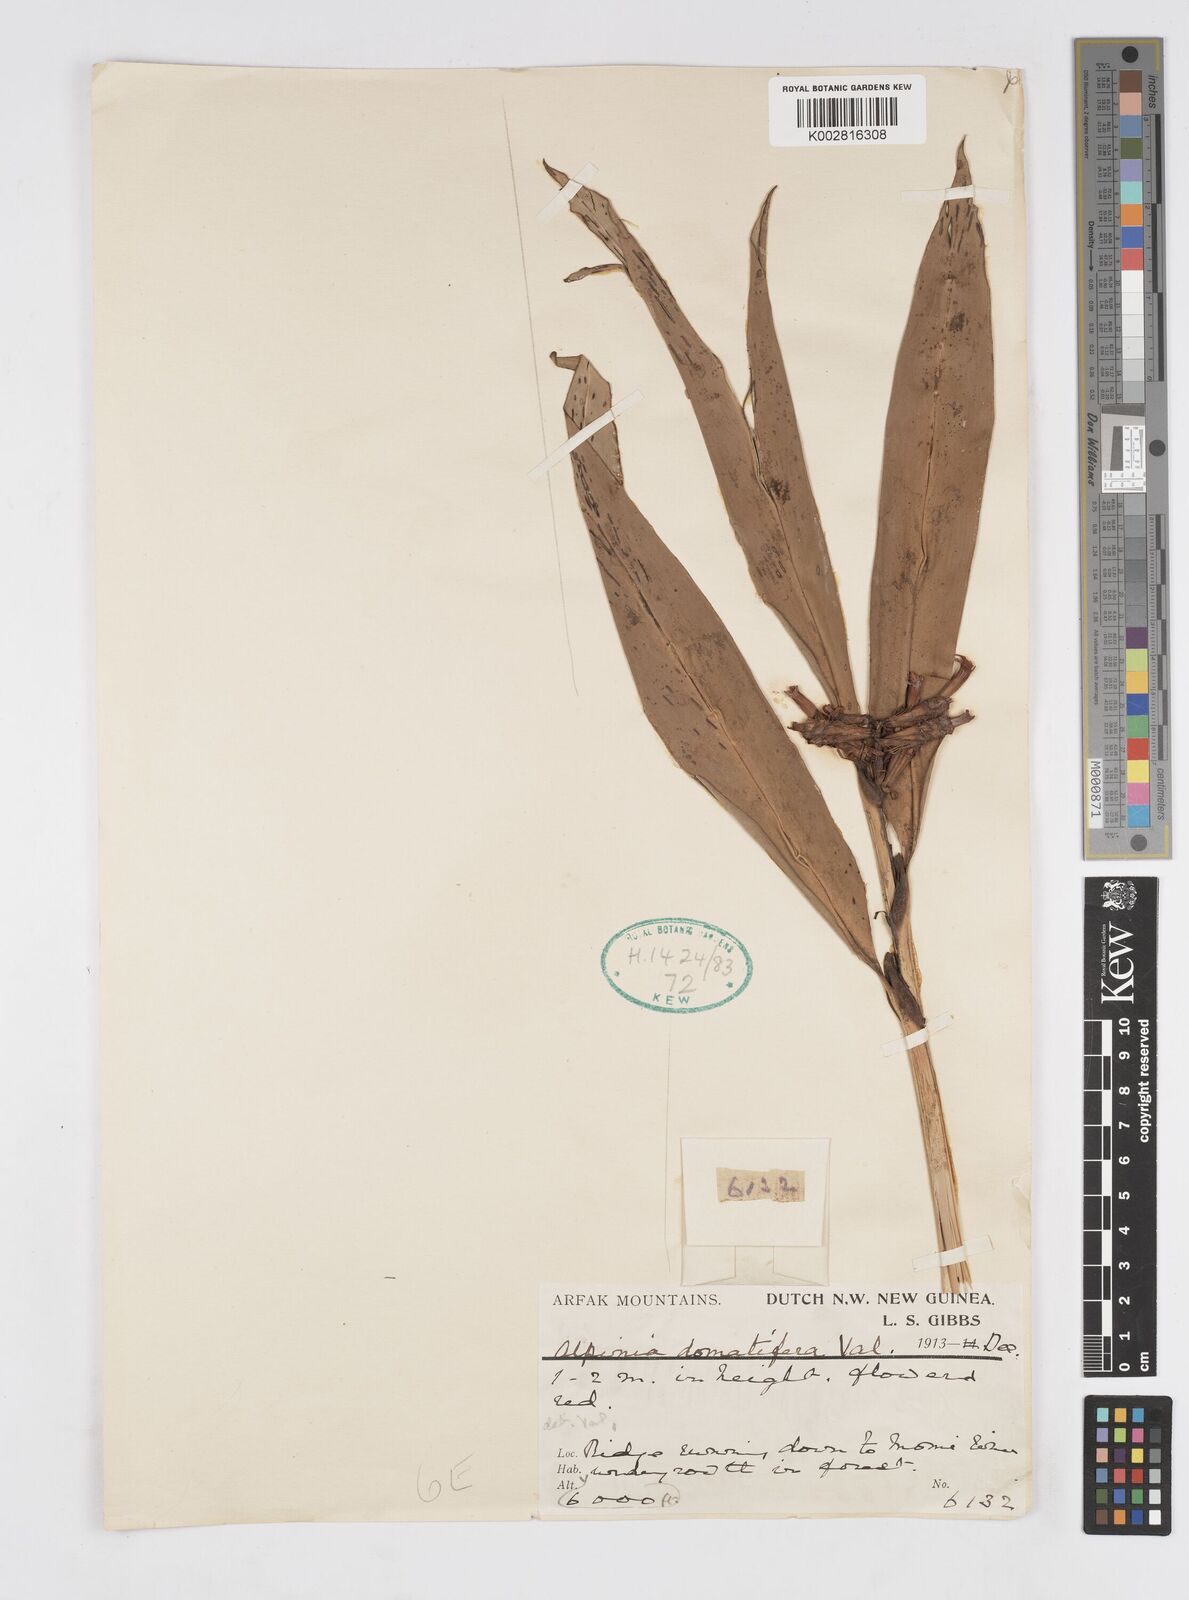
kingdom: Plantae
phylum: Tracheophyta
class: Liliopsida
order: Zingiberales
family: Zingiberaceae
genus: Alpinia
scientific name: Alpinia domatifera
